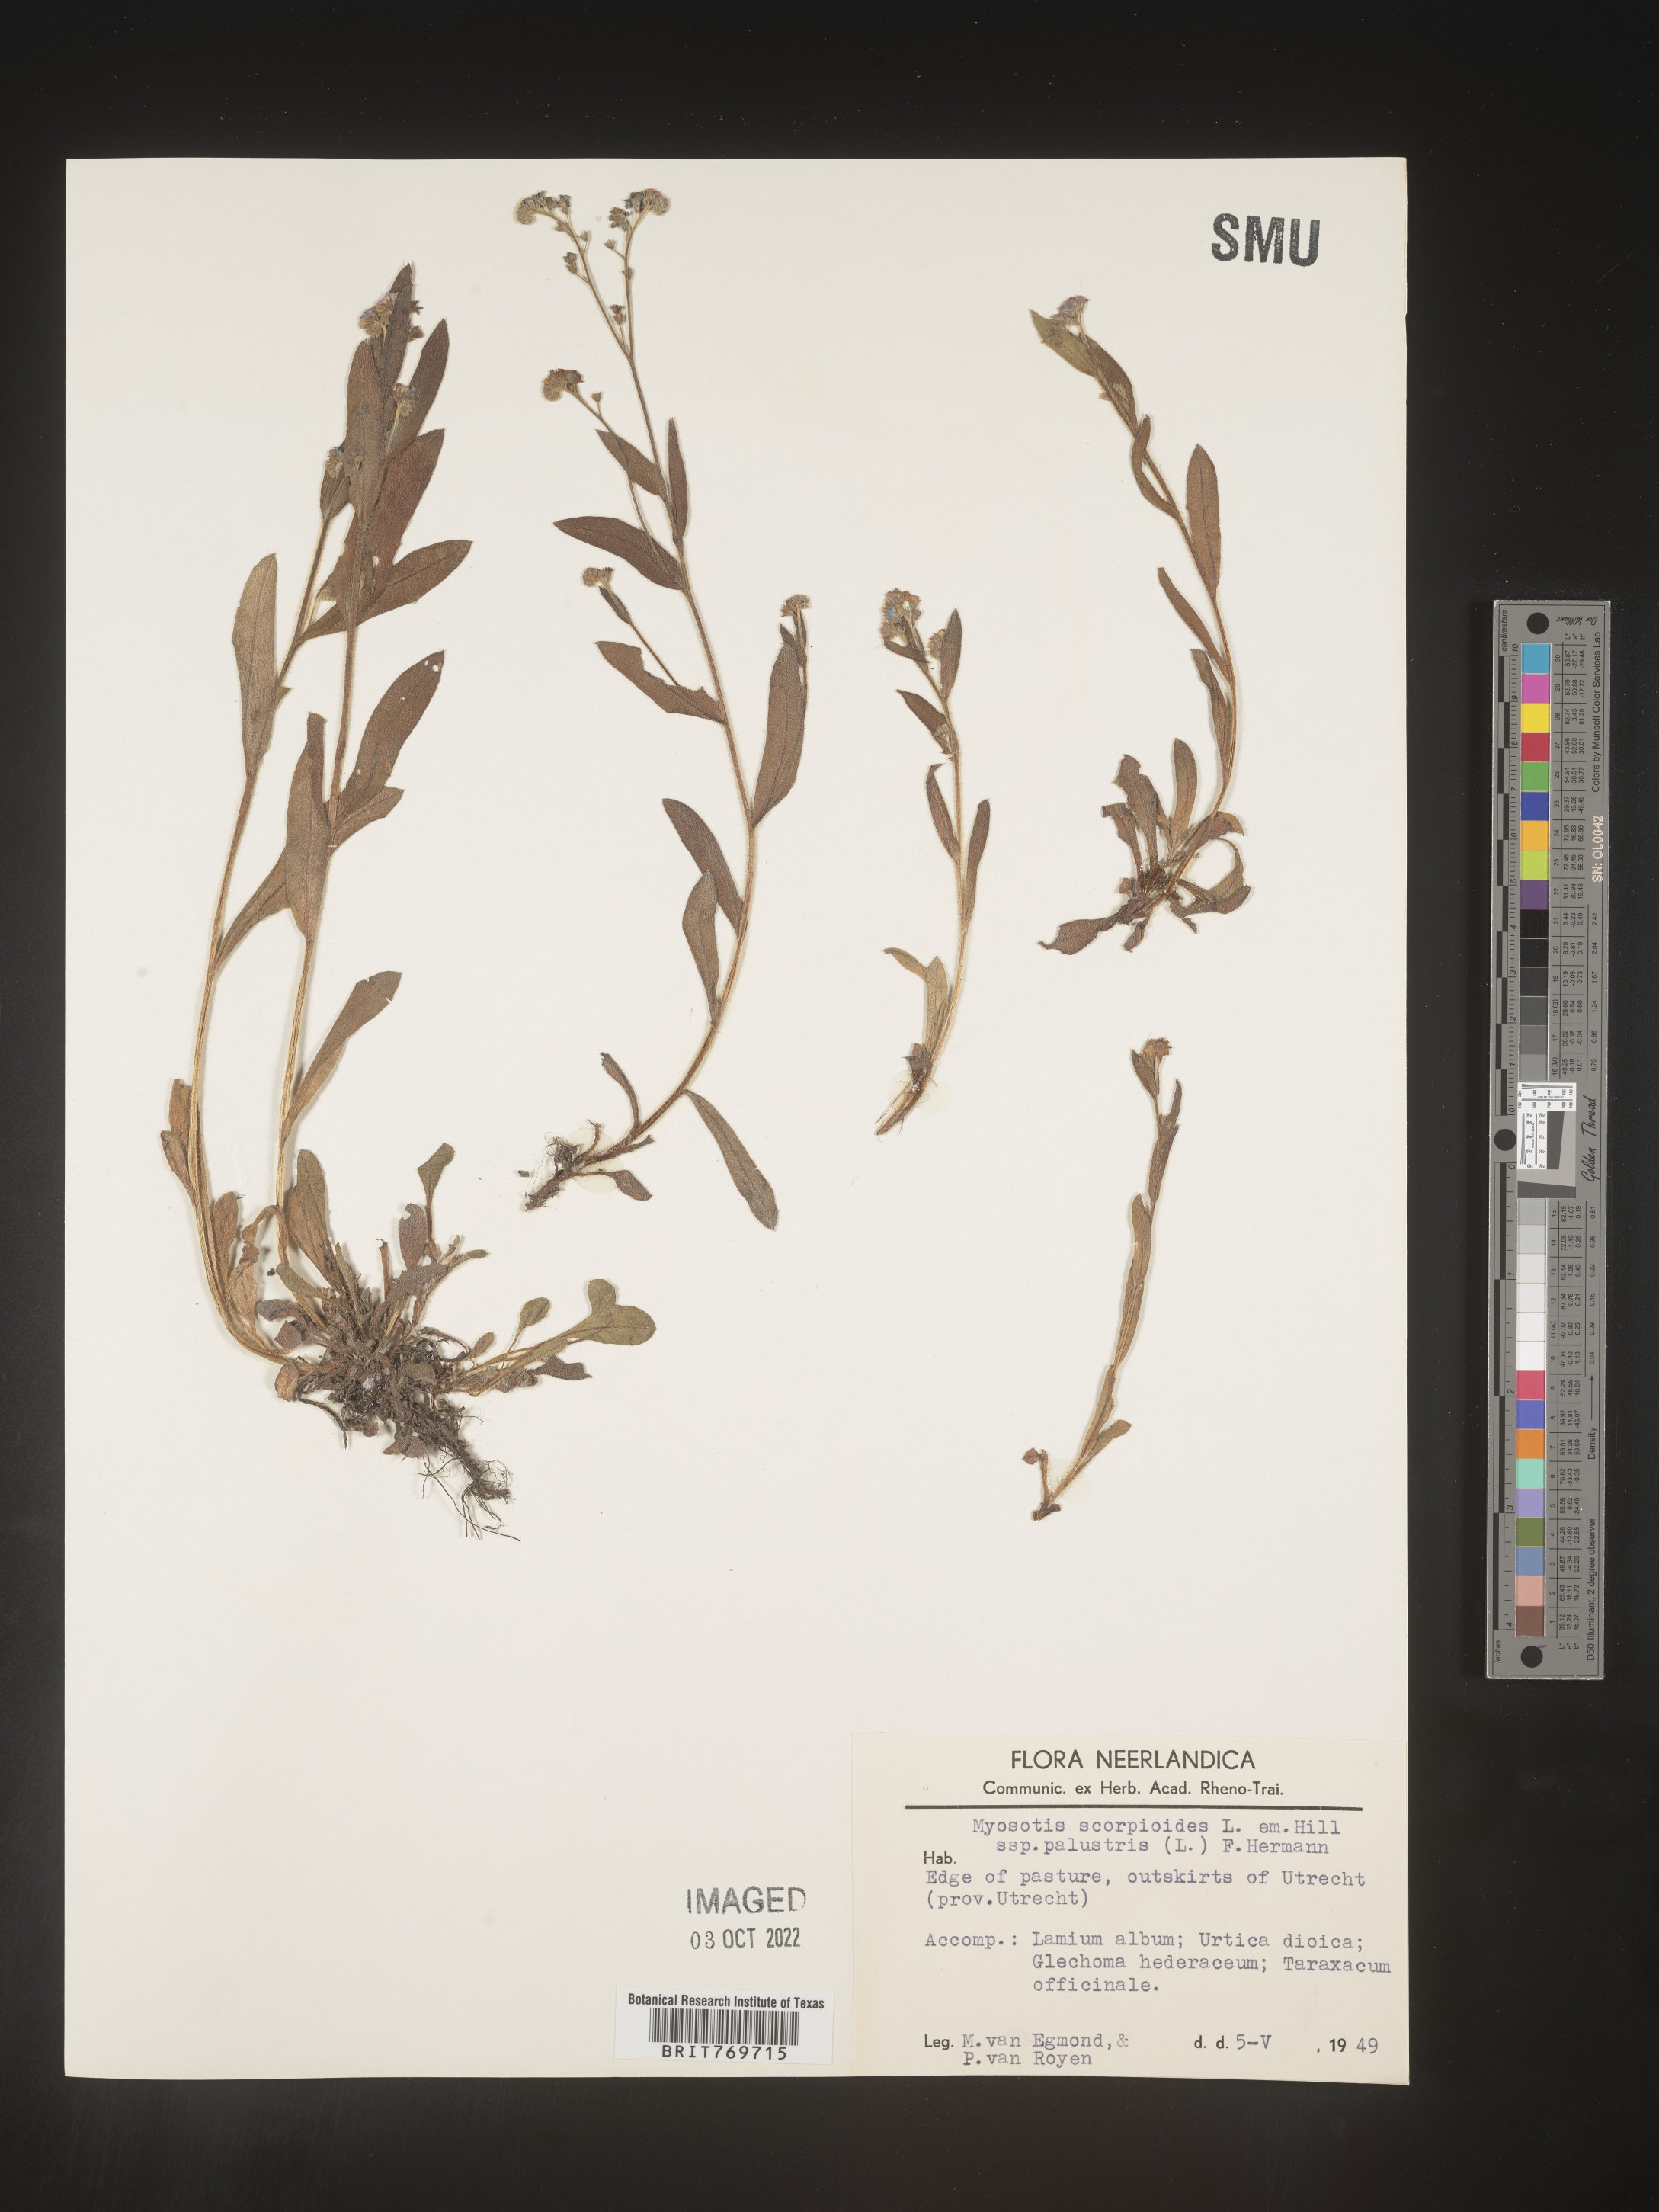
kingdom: Plantae
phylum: Tracheophyta
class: Magnoliopsida
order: Boraginales
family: Boraginaceae
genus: Myosotis
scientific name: Myosotis
